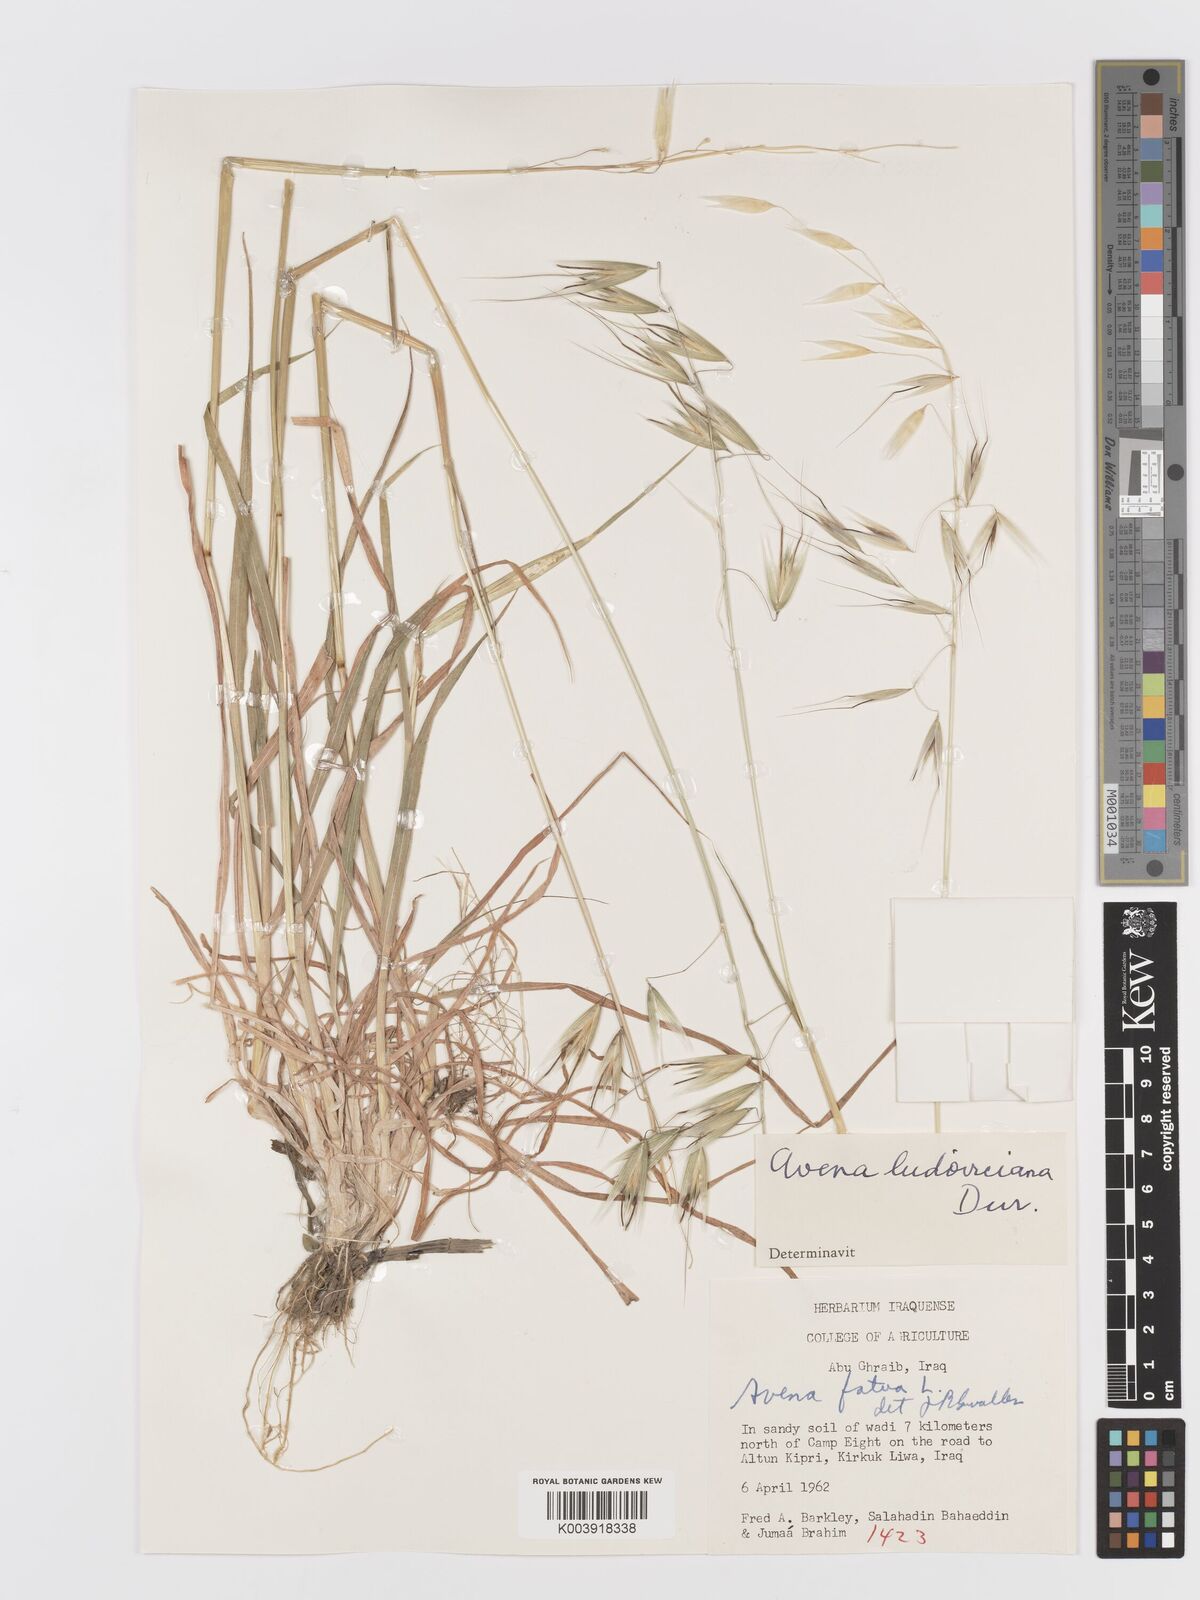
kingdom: Plantae
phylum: Tracheophyta
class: Liliopsida
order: Poales
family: Poaceae
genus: Avena
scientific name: Avena sterilis
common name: Animated oat
